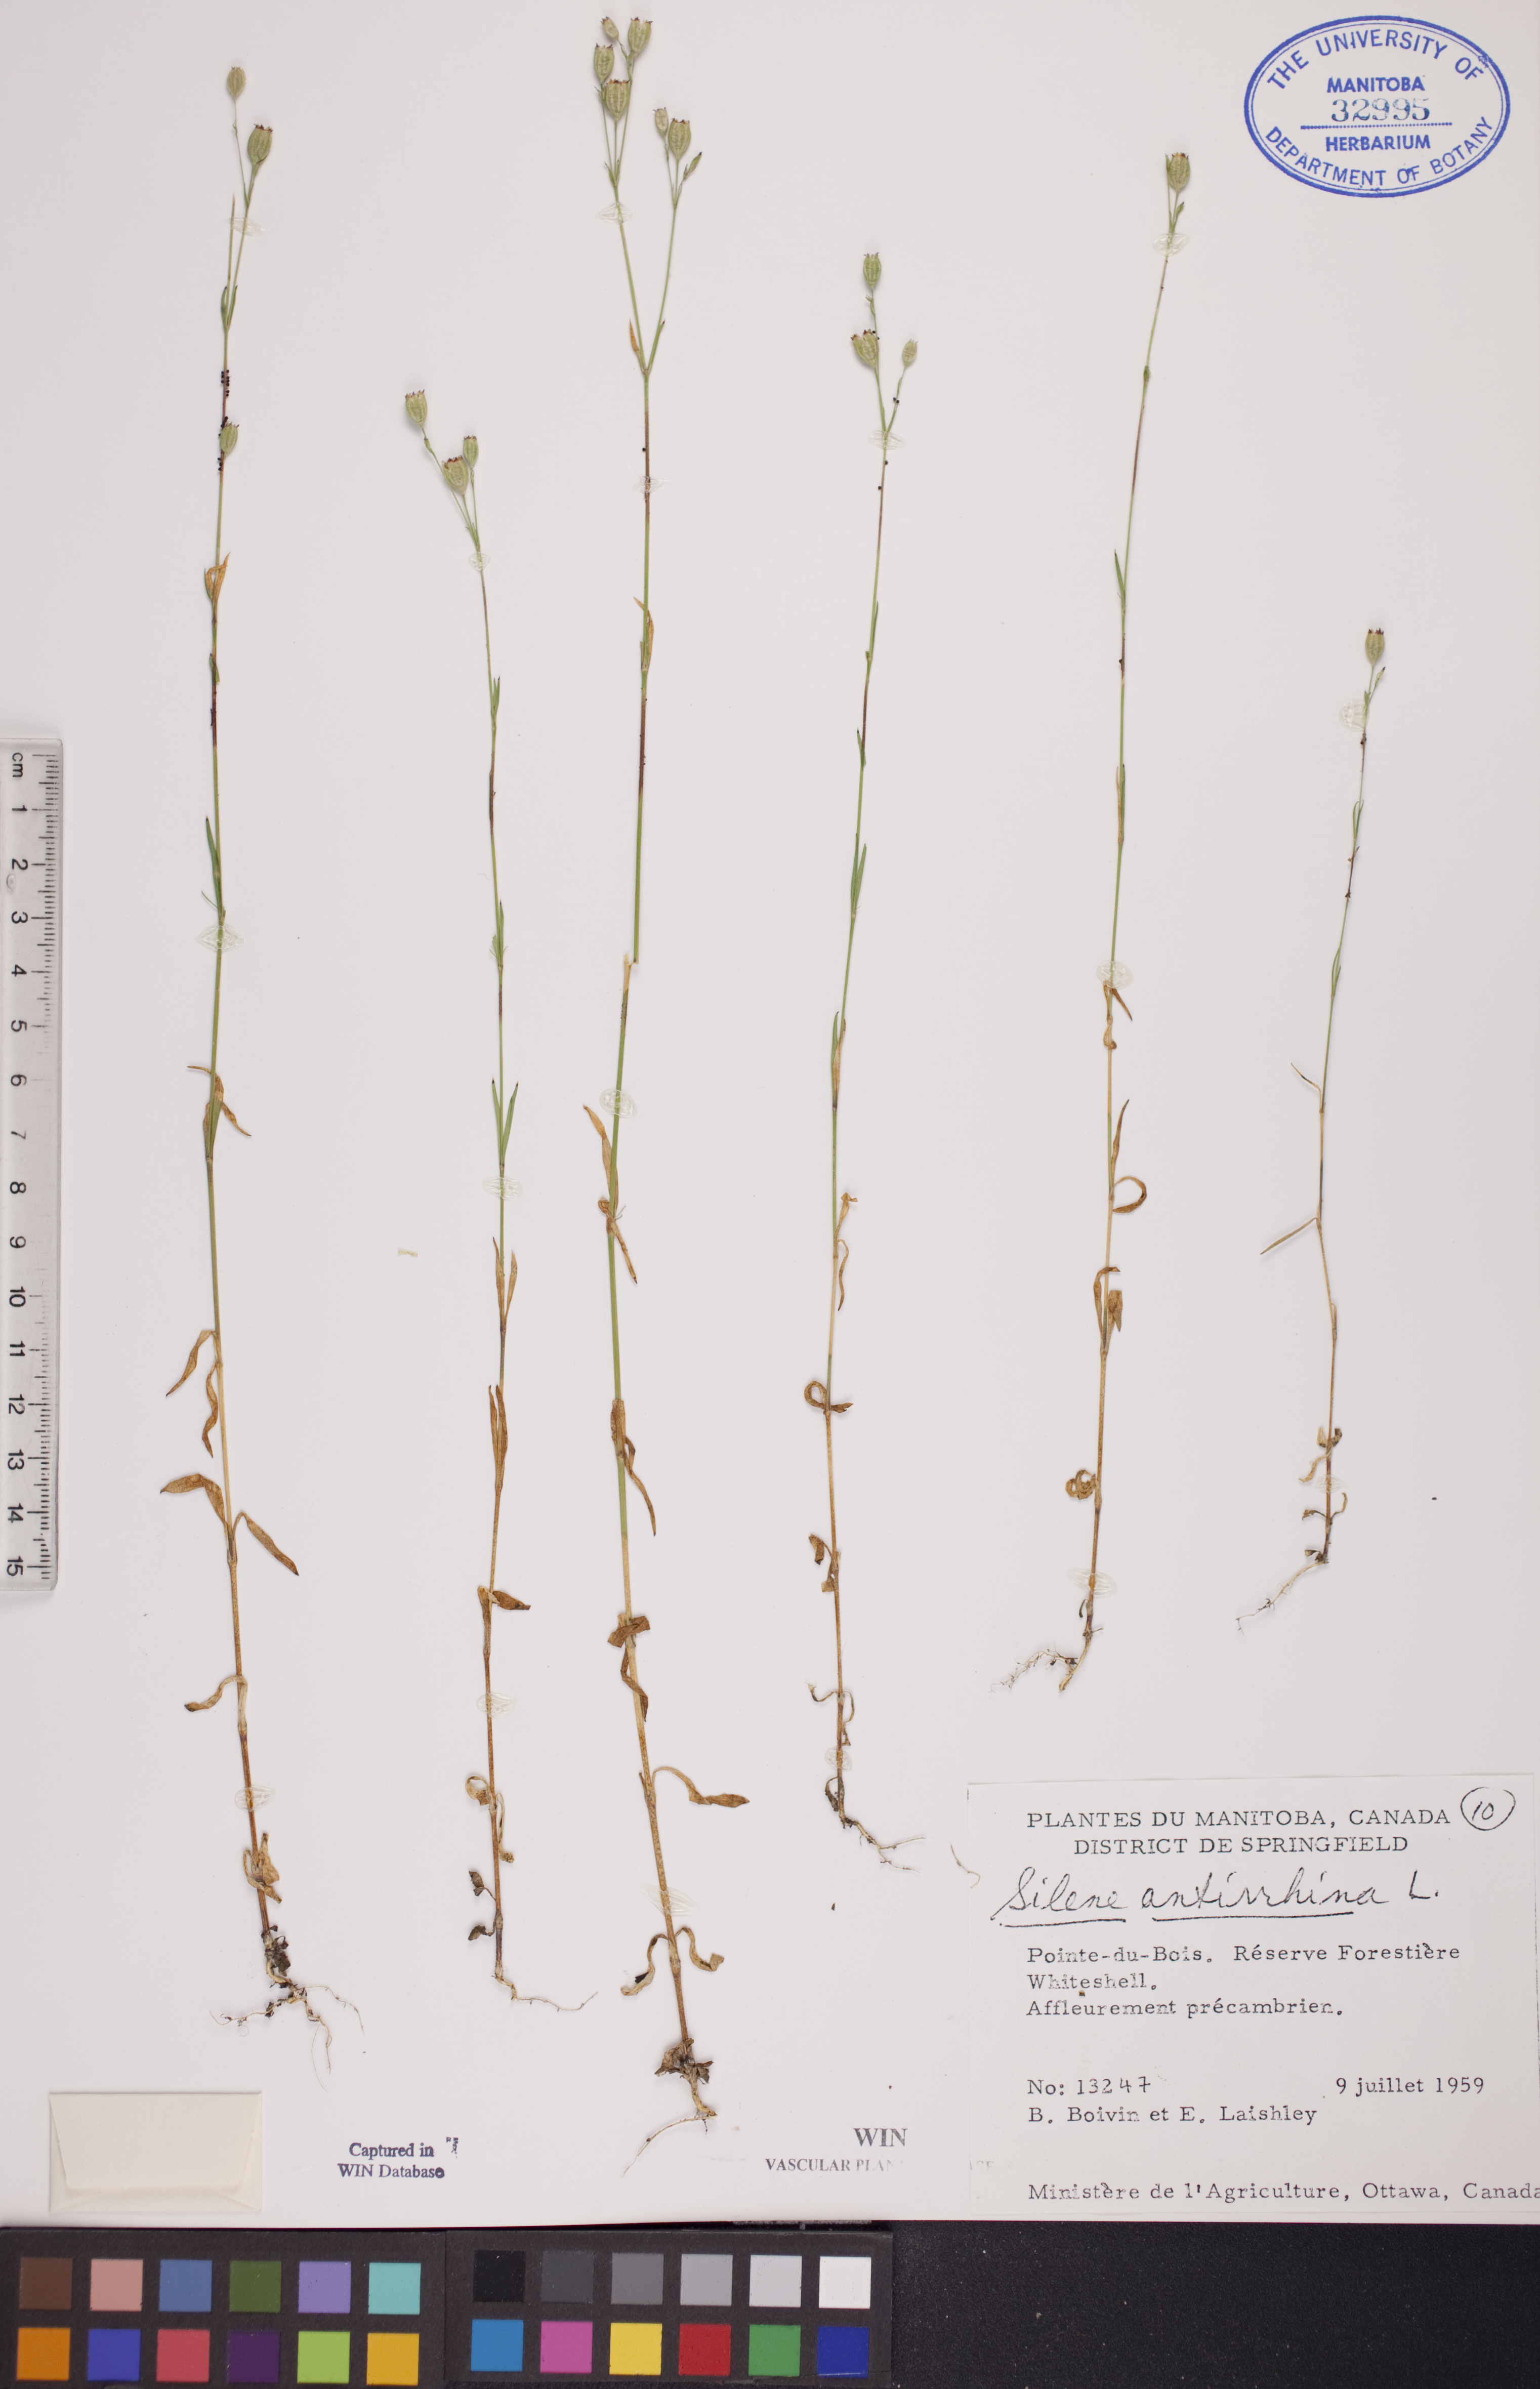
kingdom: Plantae
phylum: Tracheophyta
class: Magnoliopsida
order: Caryophyllales
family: Caryophyllaceae
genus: Silene
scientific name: Silene antirrhina
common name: Sleepy catchfly
